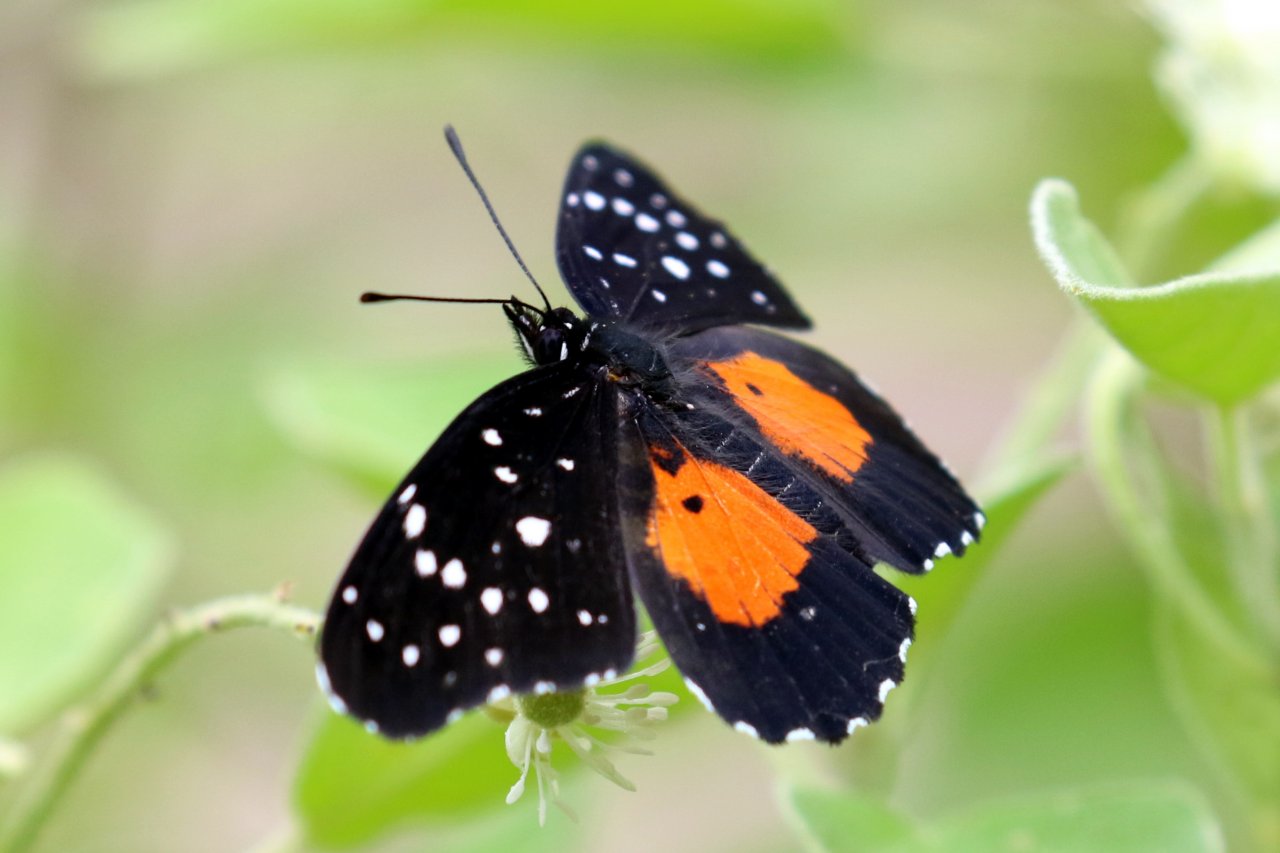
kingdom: Animalia
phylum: Arthropoda
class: Insecta
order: Lepidoptera
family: Nymphalidae
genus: Chlosyne
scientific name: Chlosyne janais
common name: Crimson Patch
